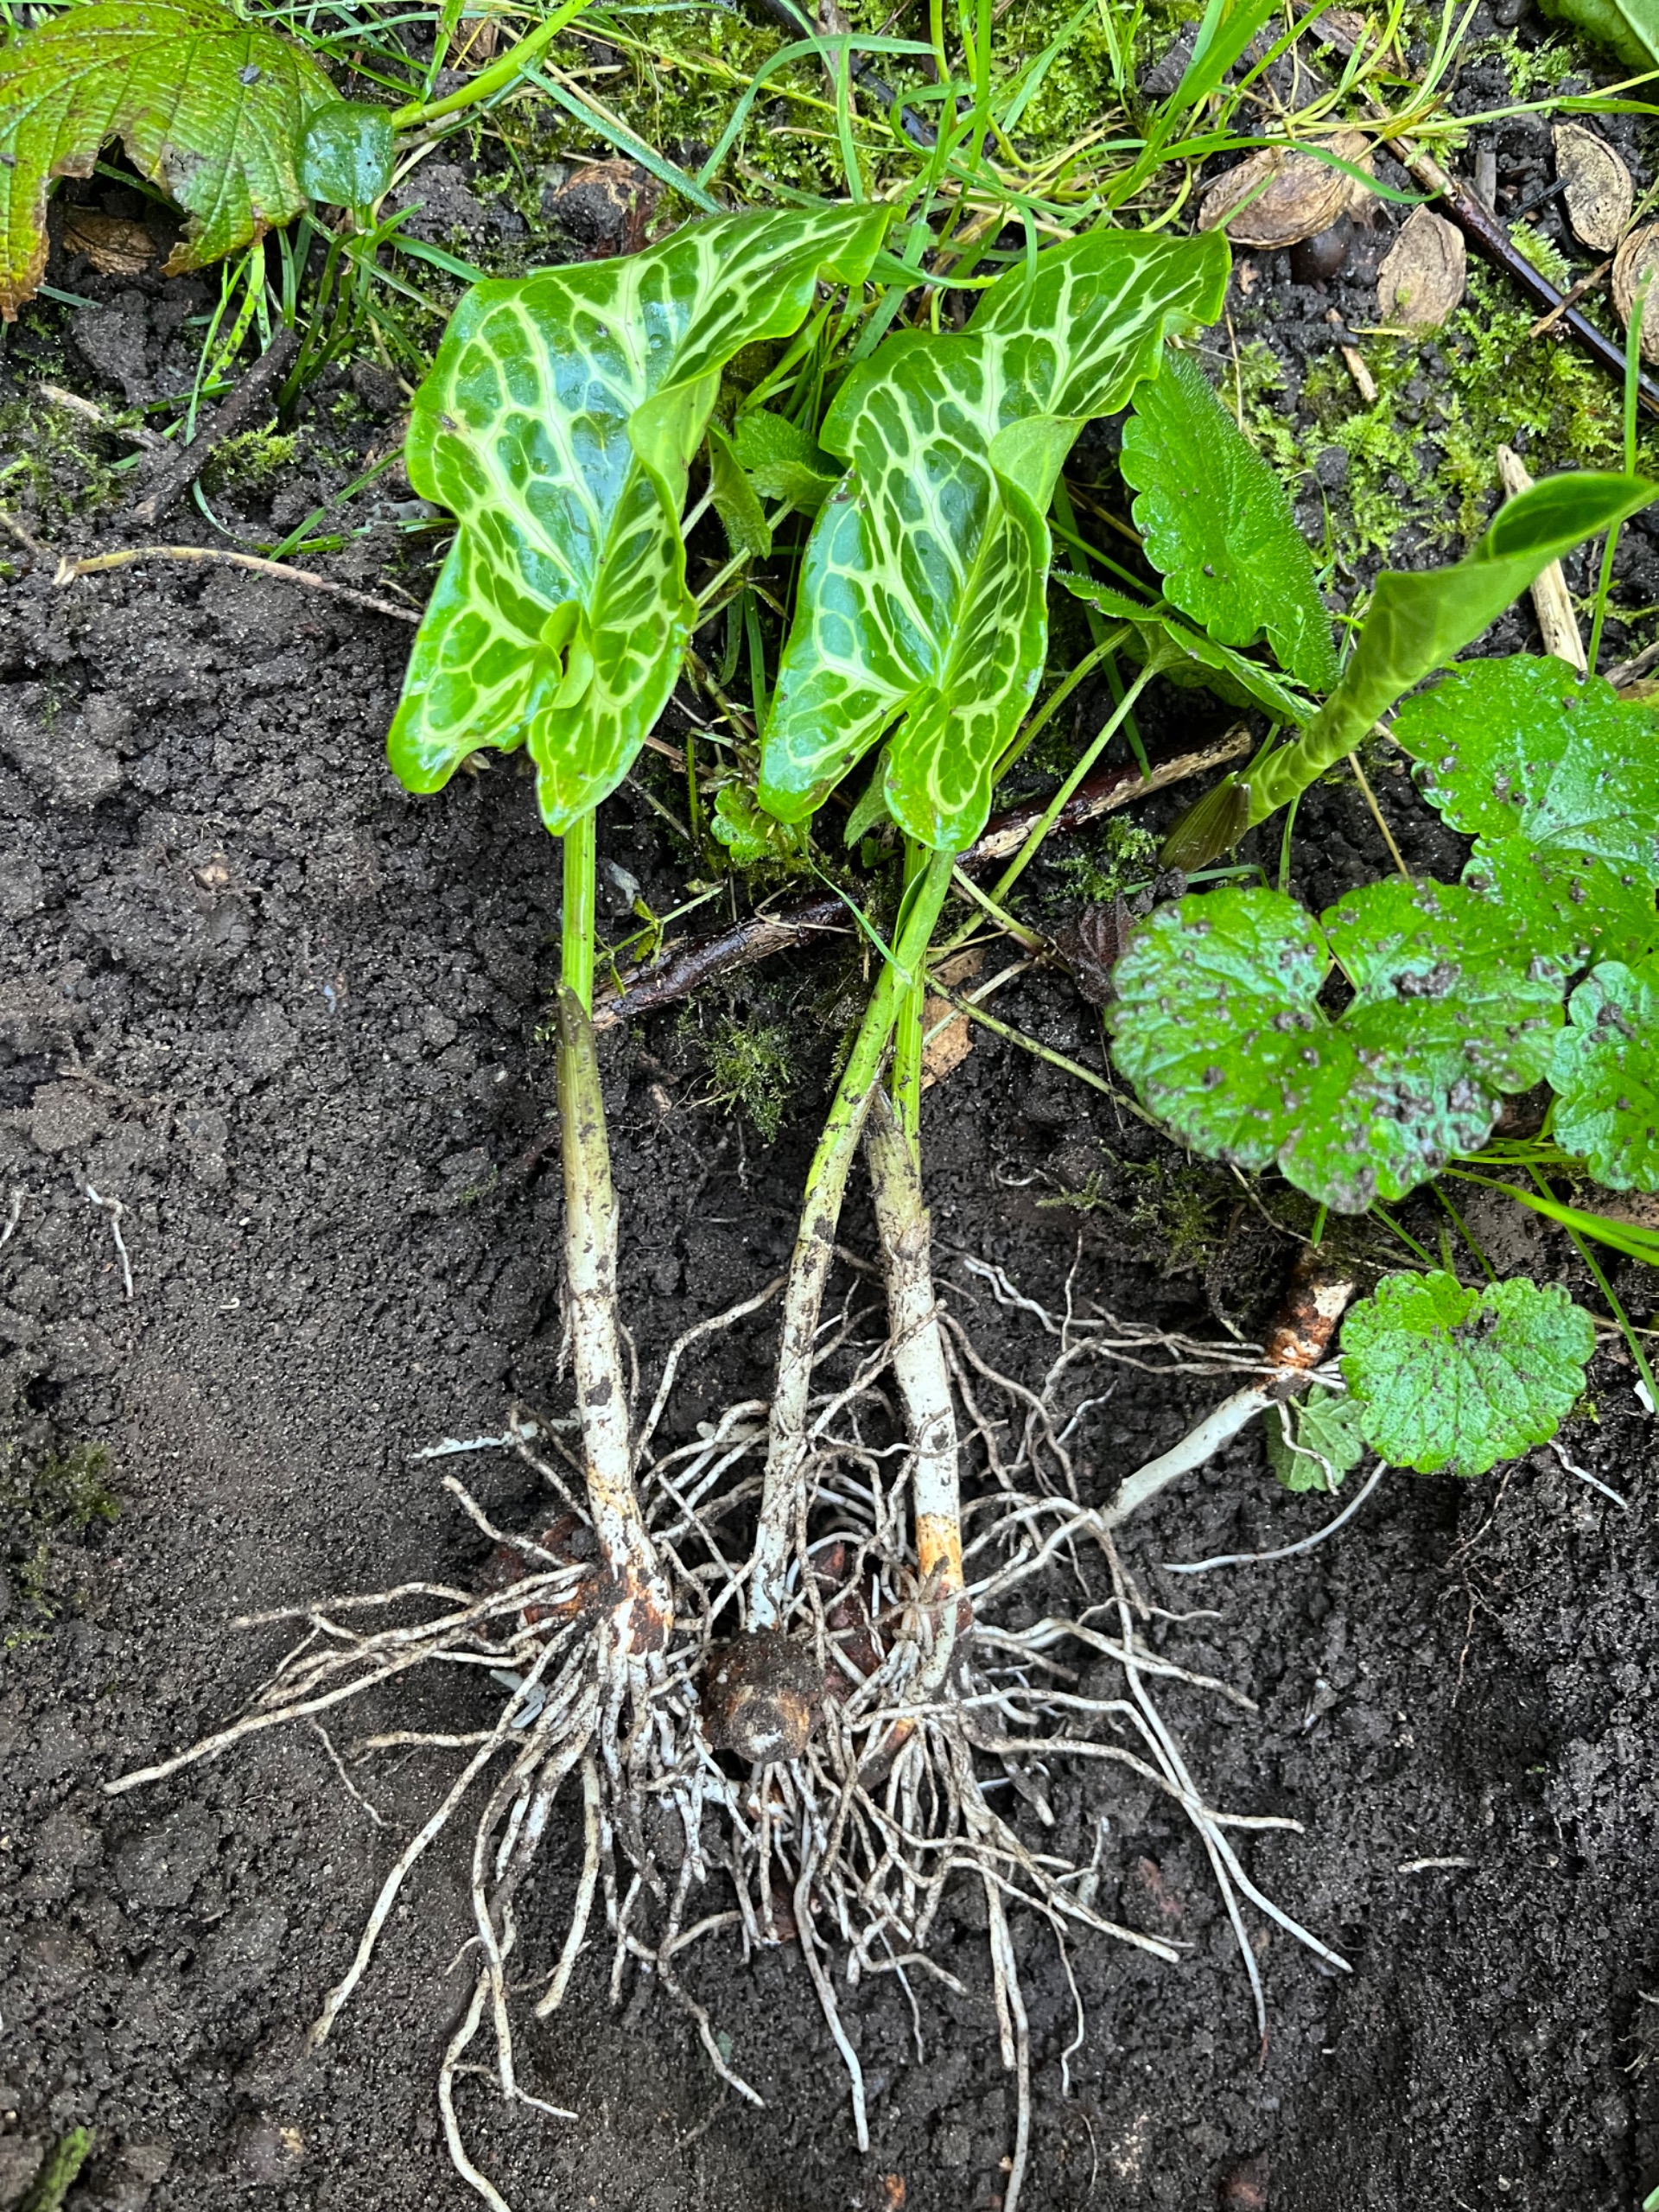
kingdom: Plantae
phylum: Tracheophyta
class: Liliopsida
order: Alismatales
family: Araceae
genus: Arum
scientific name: Arum italicum
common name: Italiensk arum
